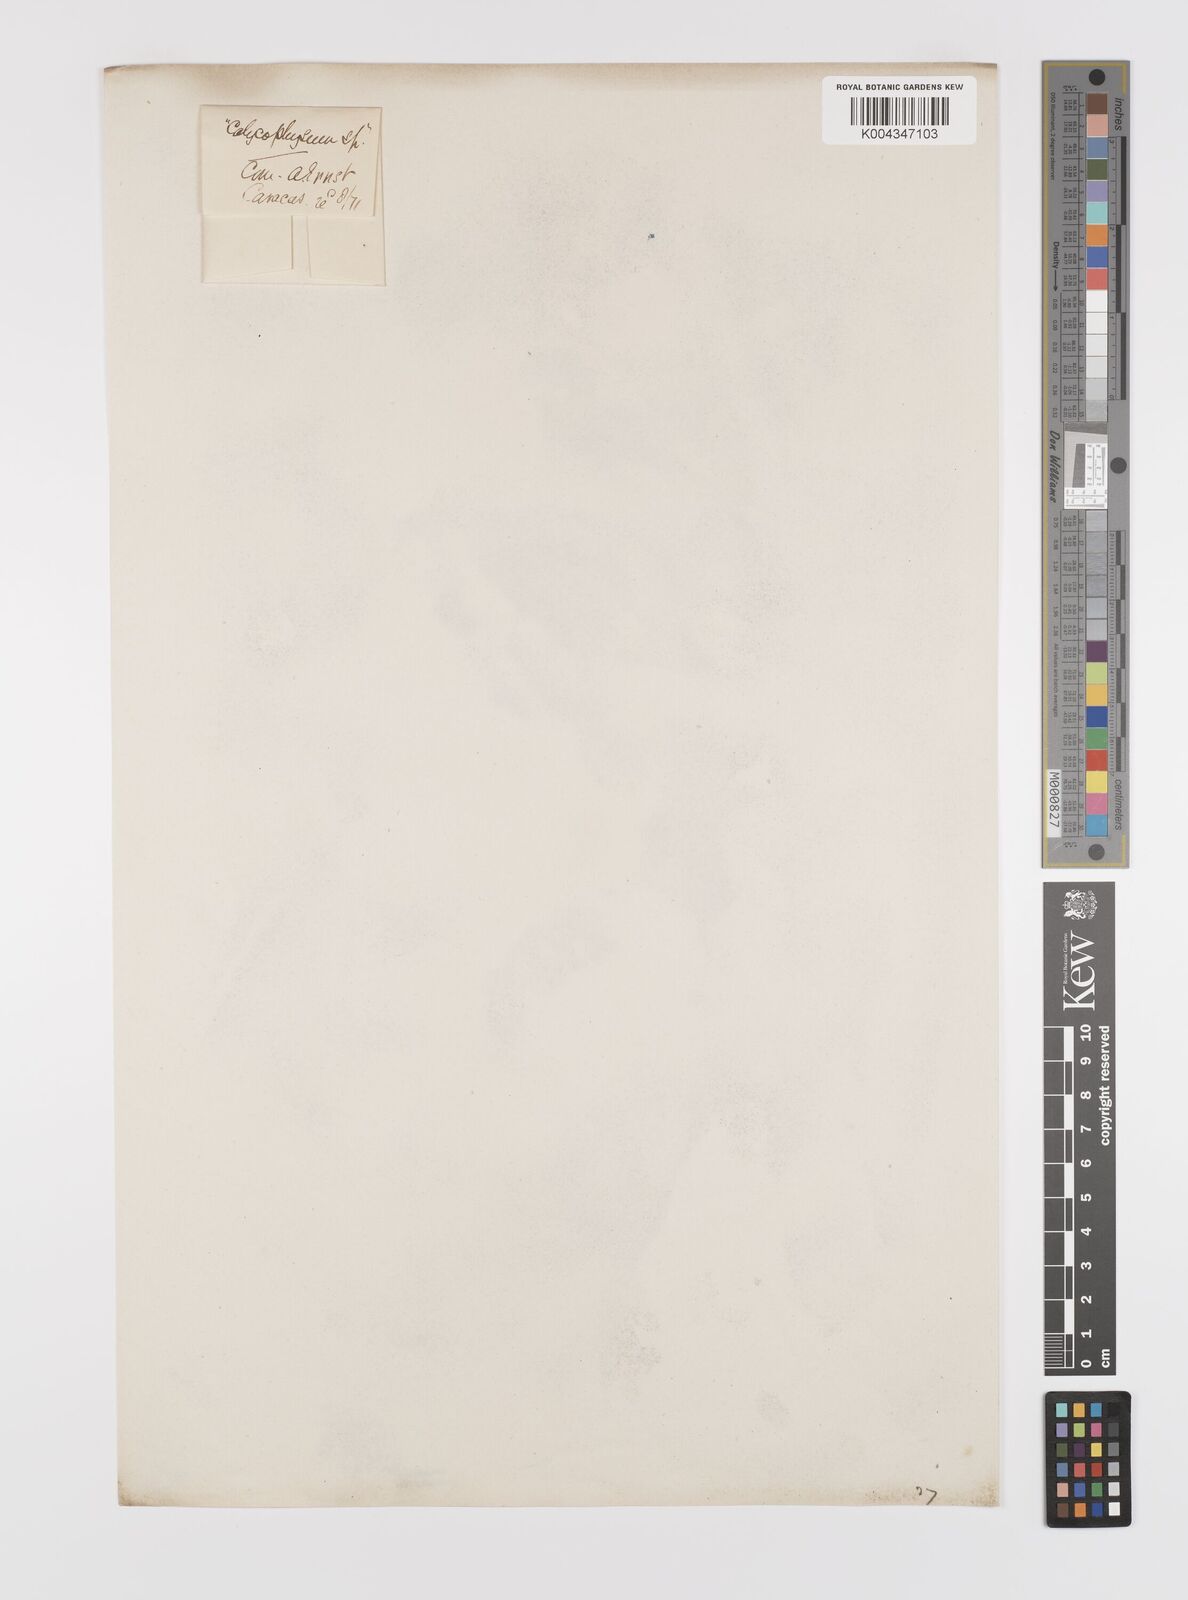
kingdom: Plantae
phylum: Tracheophyta
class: Magnoliopsida
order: Cucurbitales
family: Cucurbitaceae
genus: Calycophysum
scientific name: Calycophysum spectabile
